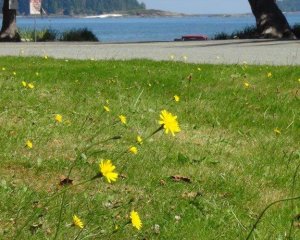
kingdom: Animalia
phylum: Arthropoda
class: Insecta
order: Lepidoptera
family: Nymphalidae
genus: Speyeria
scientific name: Speyeria zerene
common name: Zerene Fritillary
